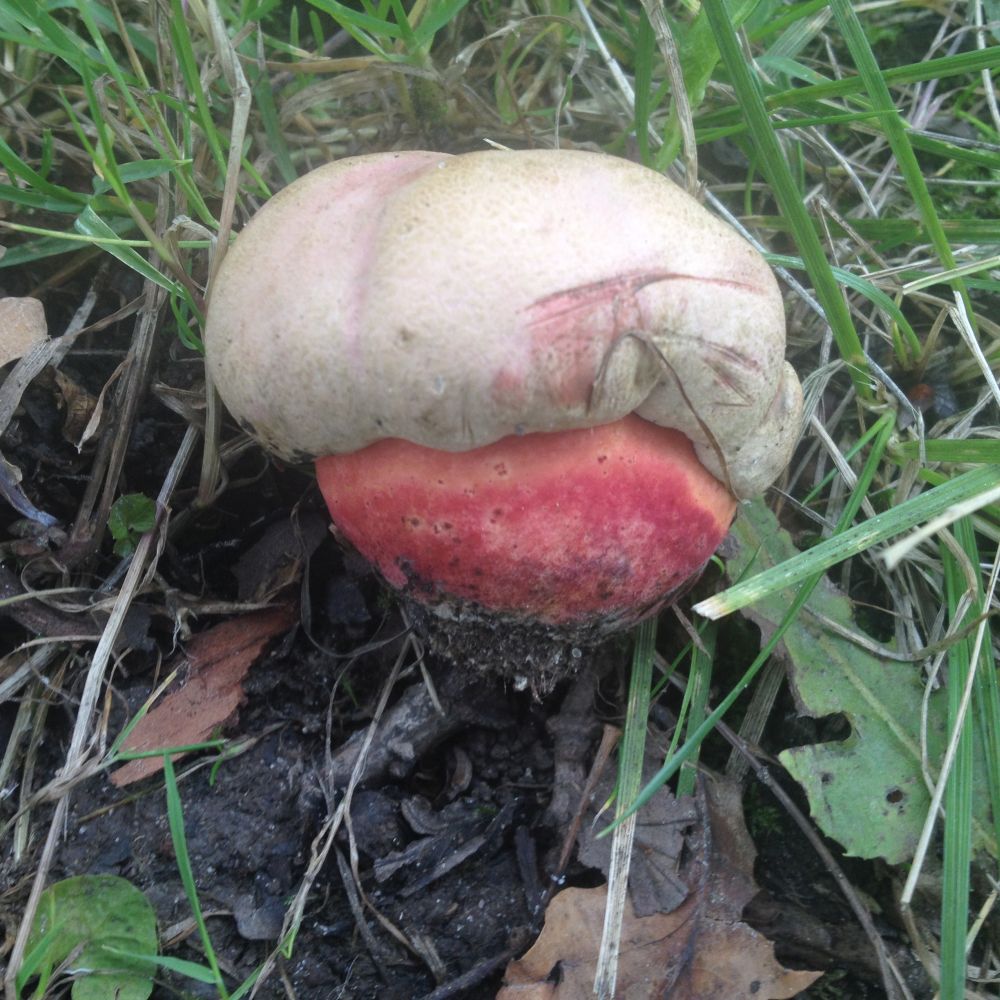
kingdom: Fungi
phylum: Basidiomycota
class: Agaricomycetes
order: Boletales
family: Boletaceae
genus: Rubroboletus
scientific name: Rubroboletus legaliae
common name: djævle-rørhat
